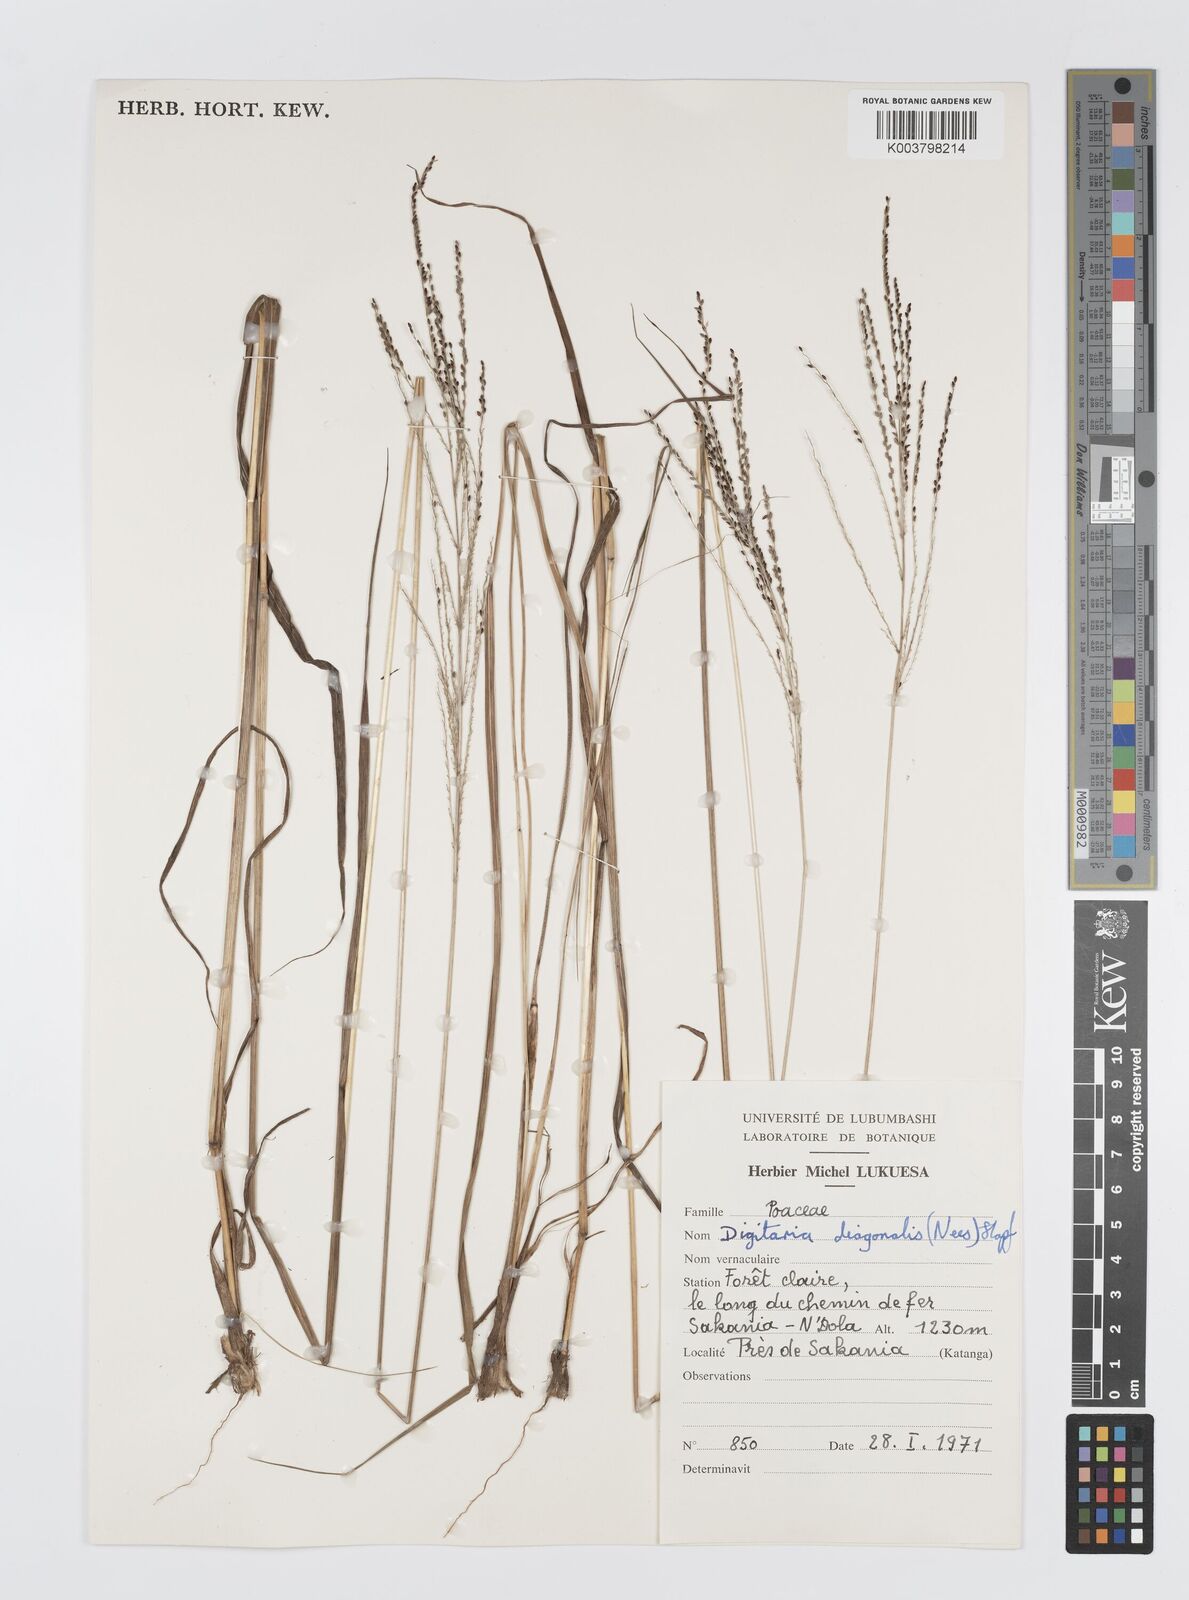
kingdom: Plantae
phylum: Tracheophyta
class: Liliopsida
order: Poales
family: Poaceae
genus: Digitaria
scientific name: Digitaria diagonalis
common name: Brown-seed finger grass
